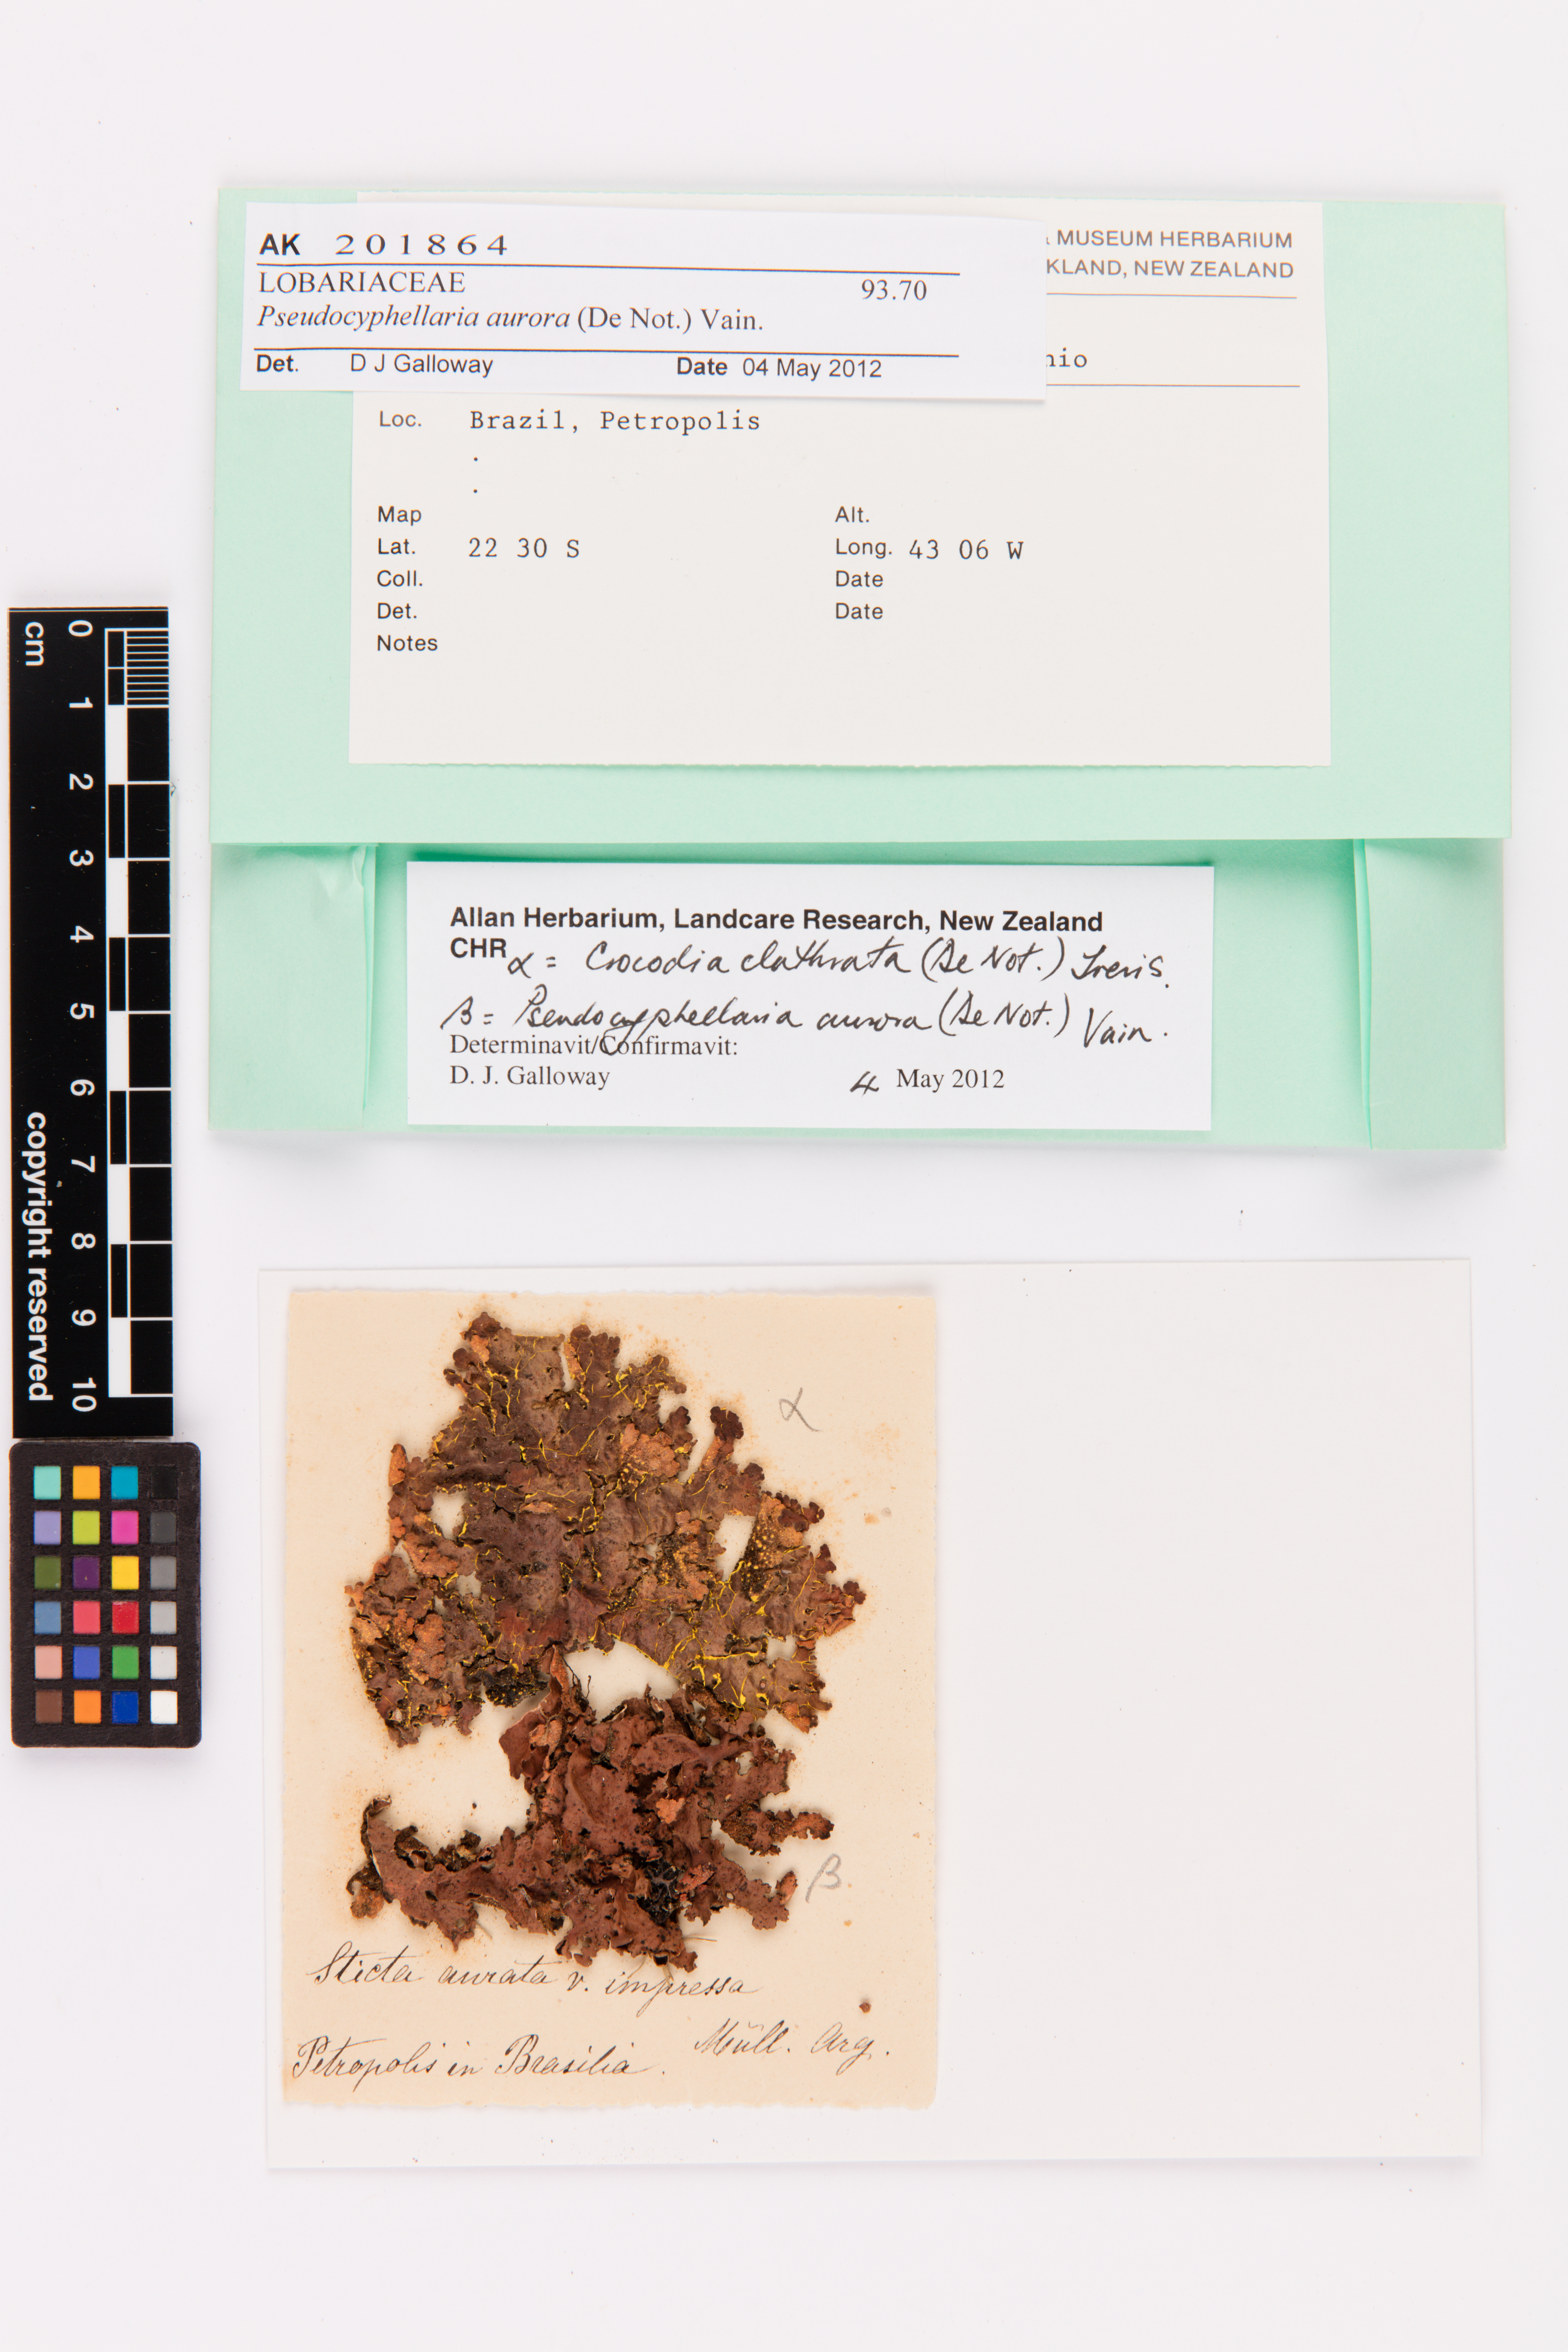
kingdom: Fungi
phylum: Ascomycota
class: Lecanoromycetes
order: Peltigerales
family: Lobariaceae
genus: Pseudocyphellaria
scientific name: Pseudocyphellaria aurata
